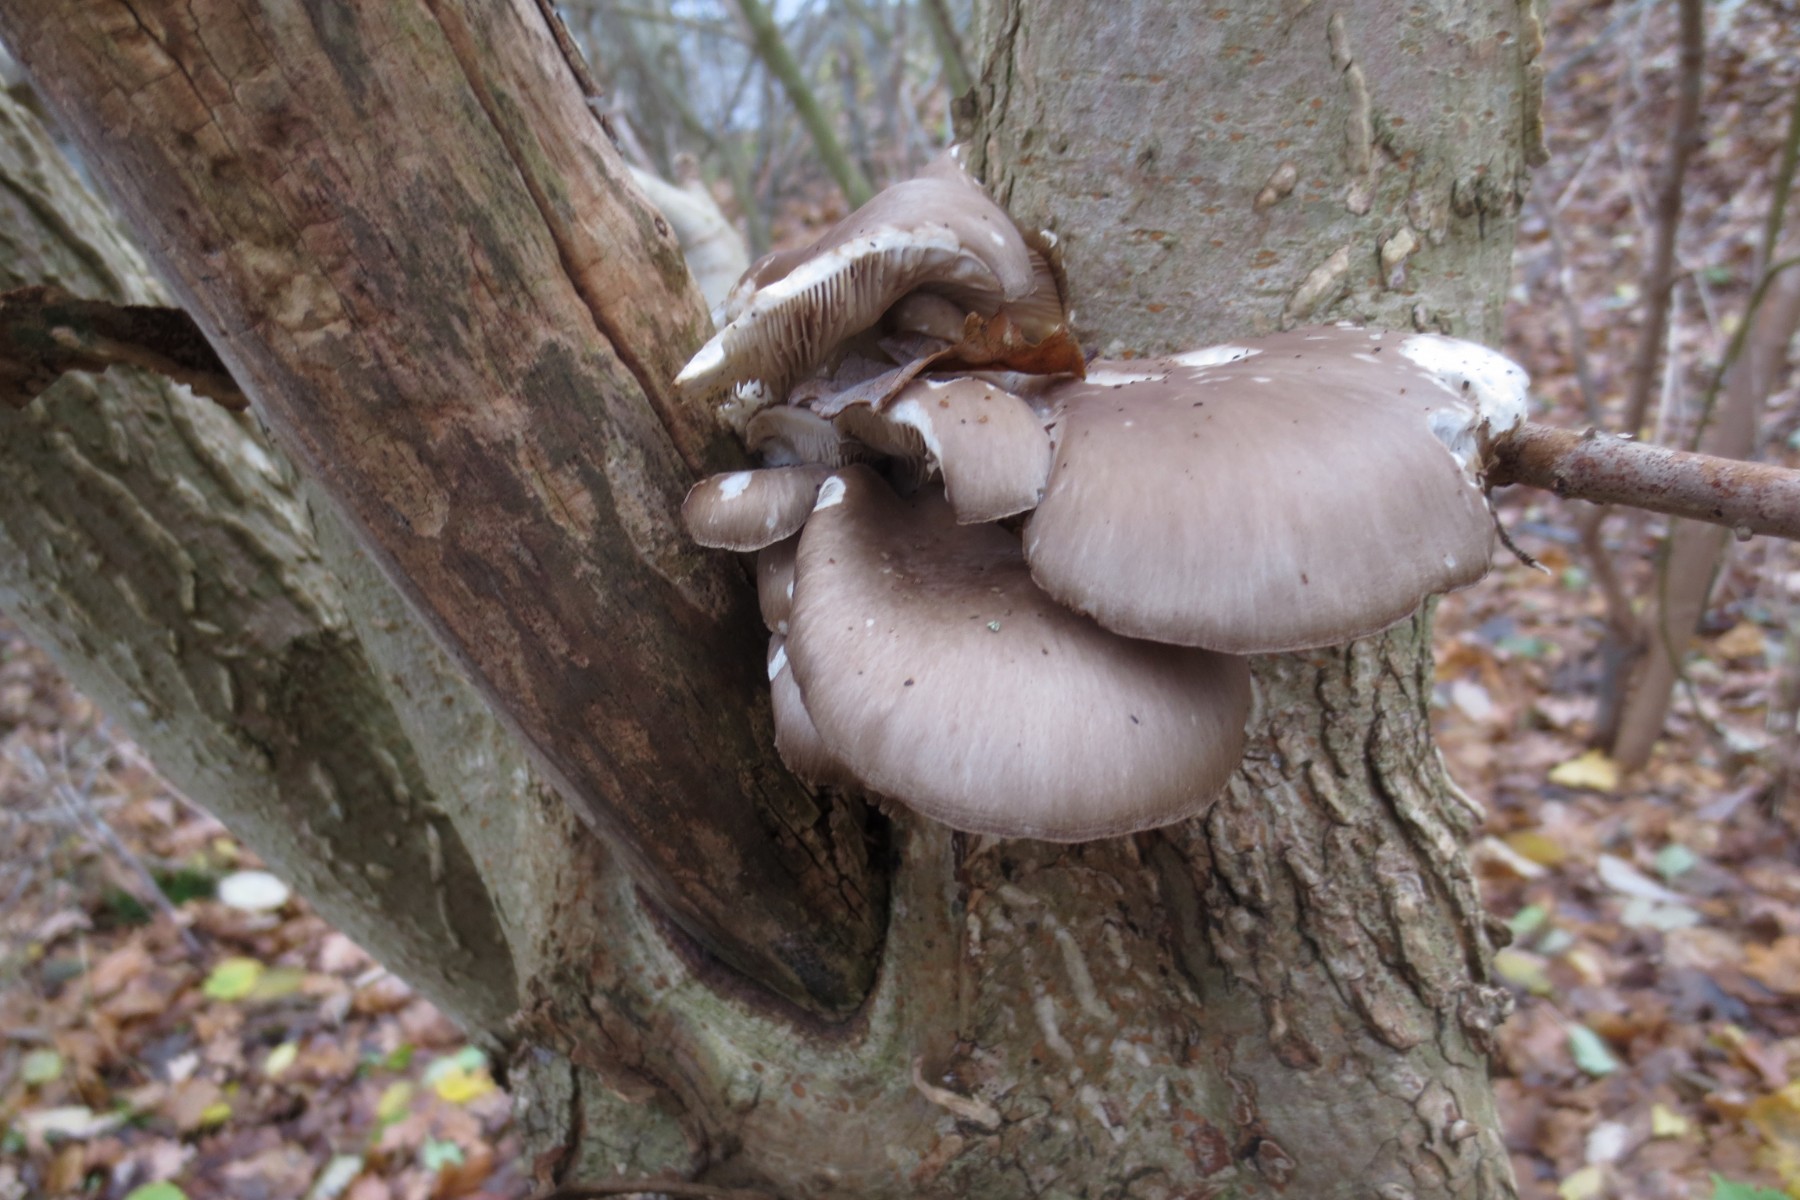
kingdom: Fungi
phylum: Basidiomycota
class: Agaricomycetes
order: Agaricales
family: Pleurotaceae
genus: Pleurotus
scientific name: Pleurotus ostreatus
